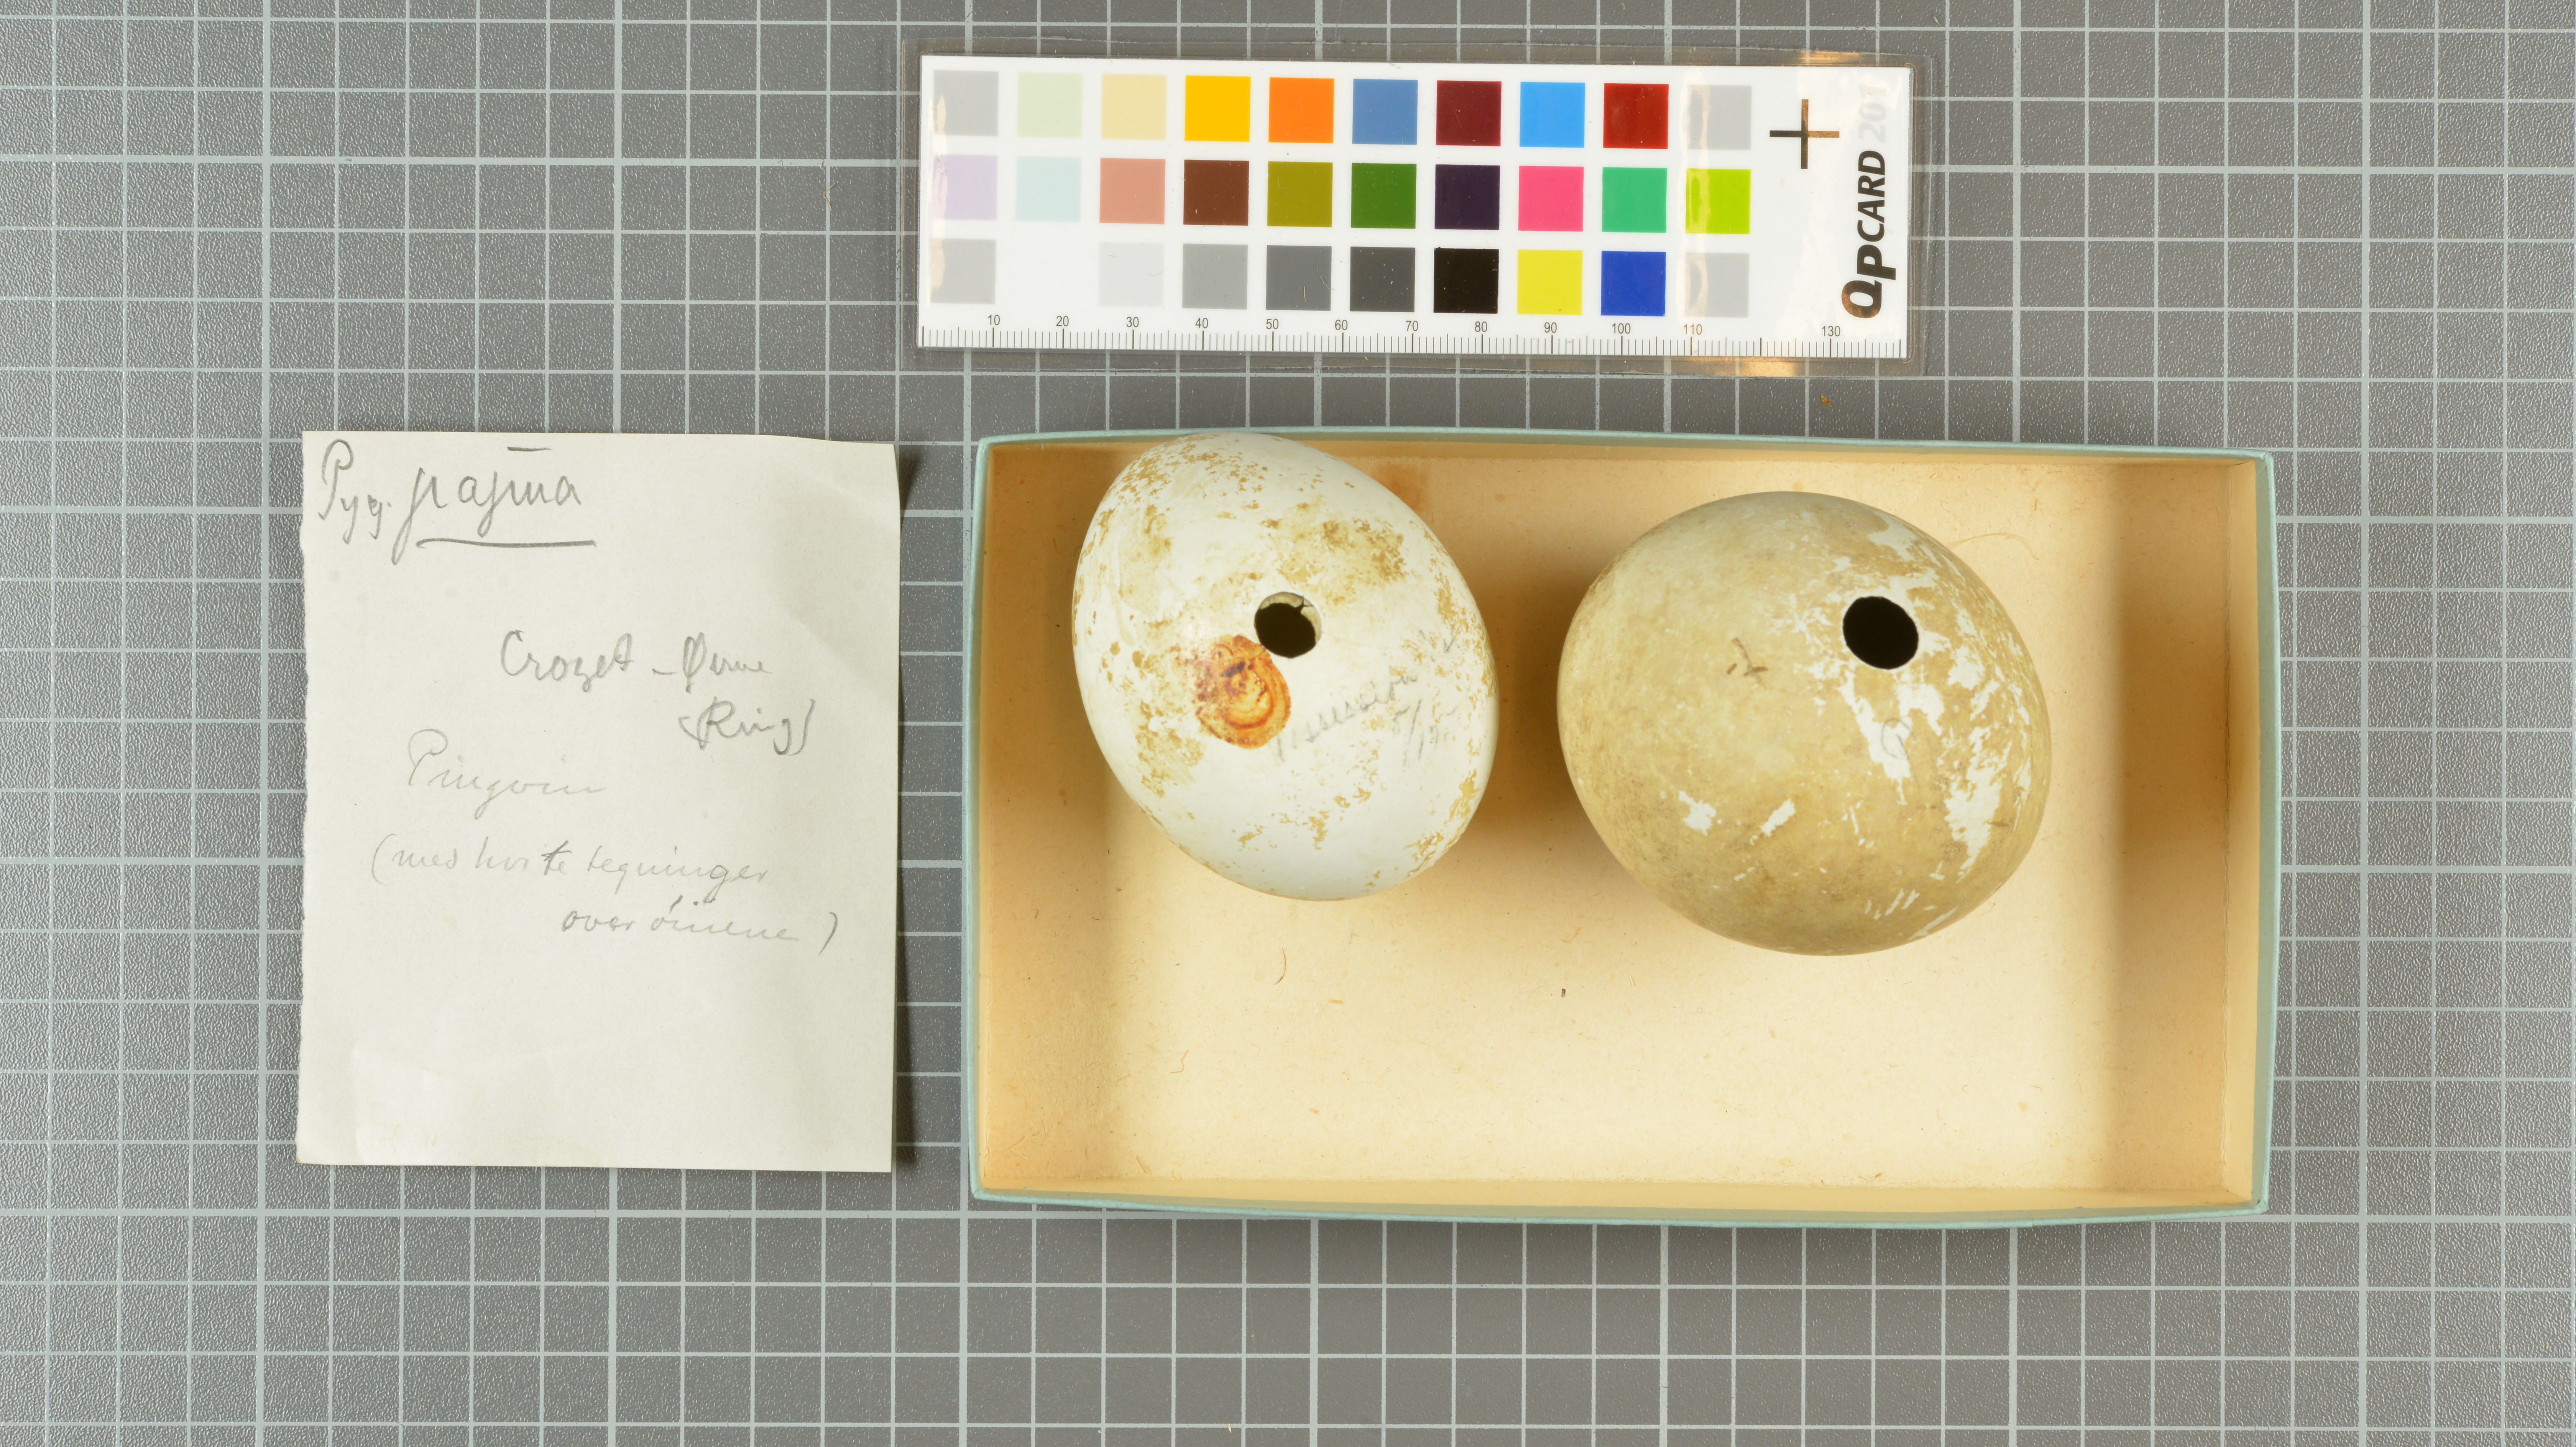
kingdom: Animalia
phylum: Chordata
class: Aves
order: Sphenisciformes
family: Spheniscidae
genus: Pygoscelis
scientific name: Pygoscelis papua
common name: Gentoo penguin
